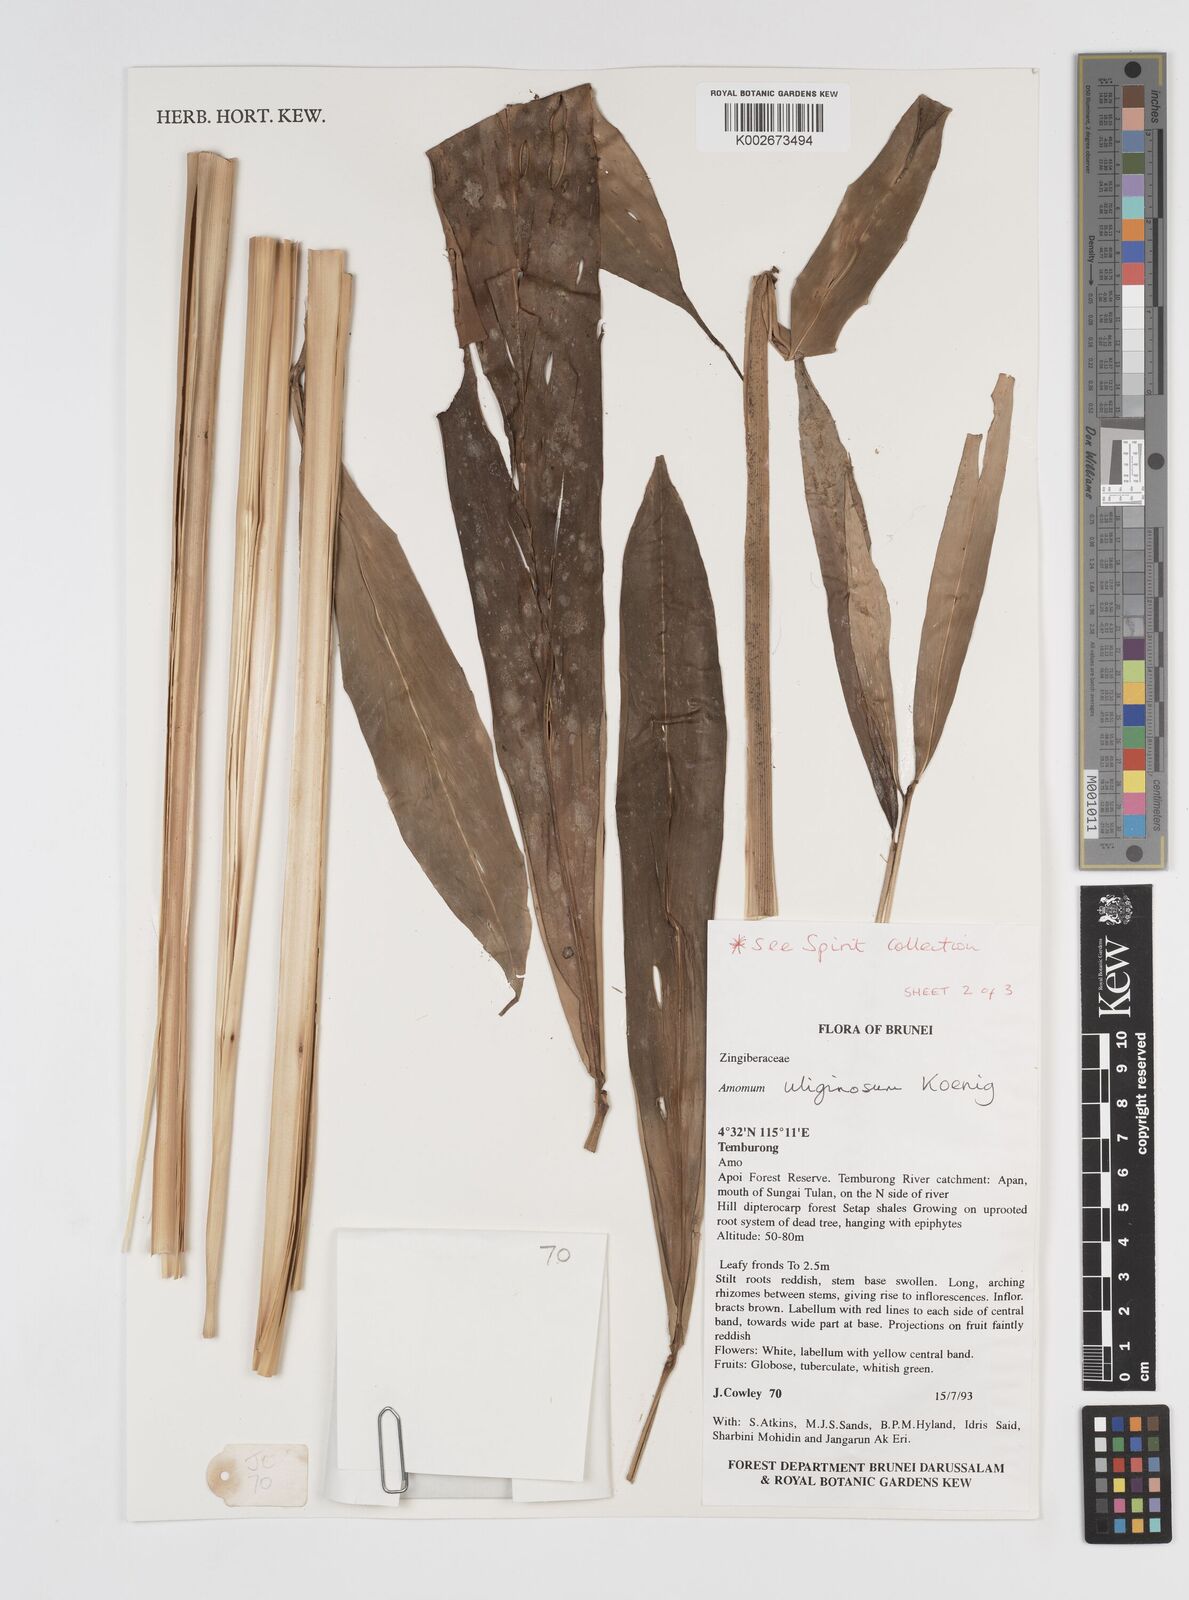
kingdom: Plantae
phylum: Tracheophyta
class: Liliopsida
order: Zingiberales
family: Zingiberaceae
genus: Wurfbainia
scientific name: Wurfbainia uliginosa
